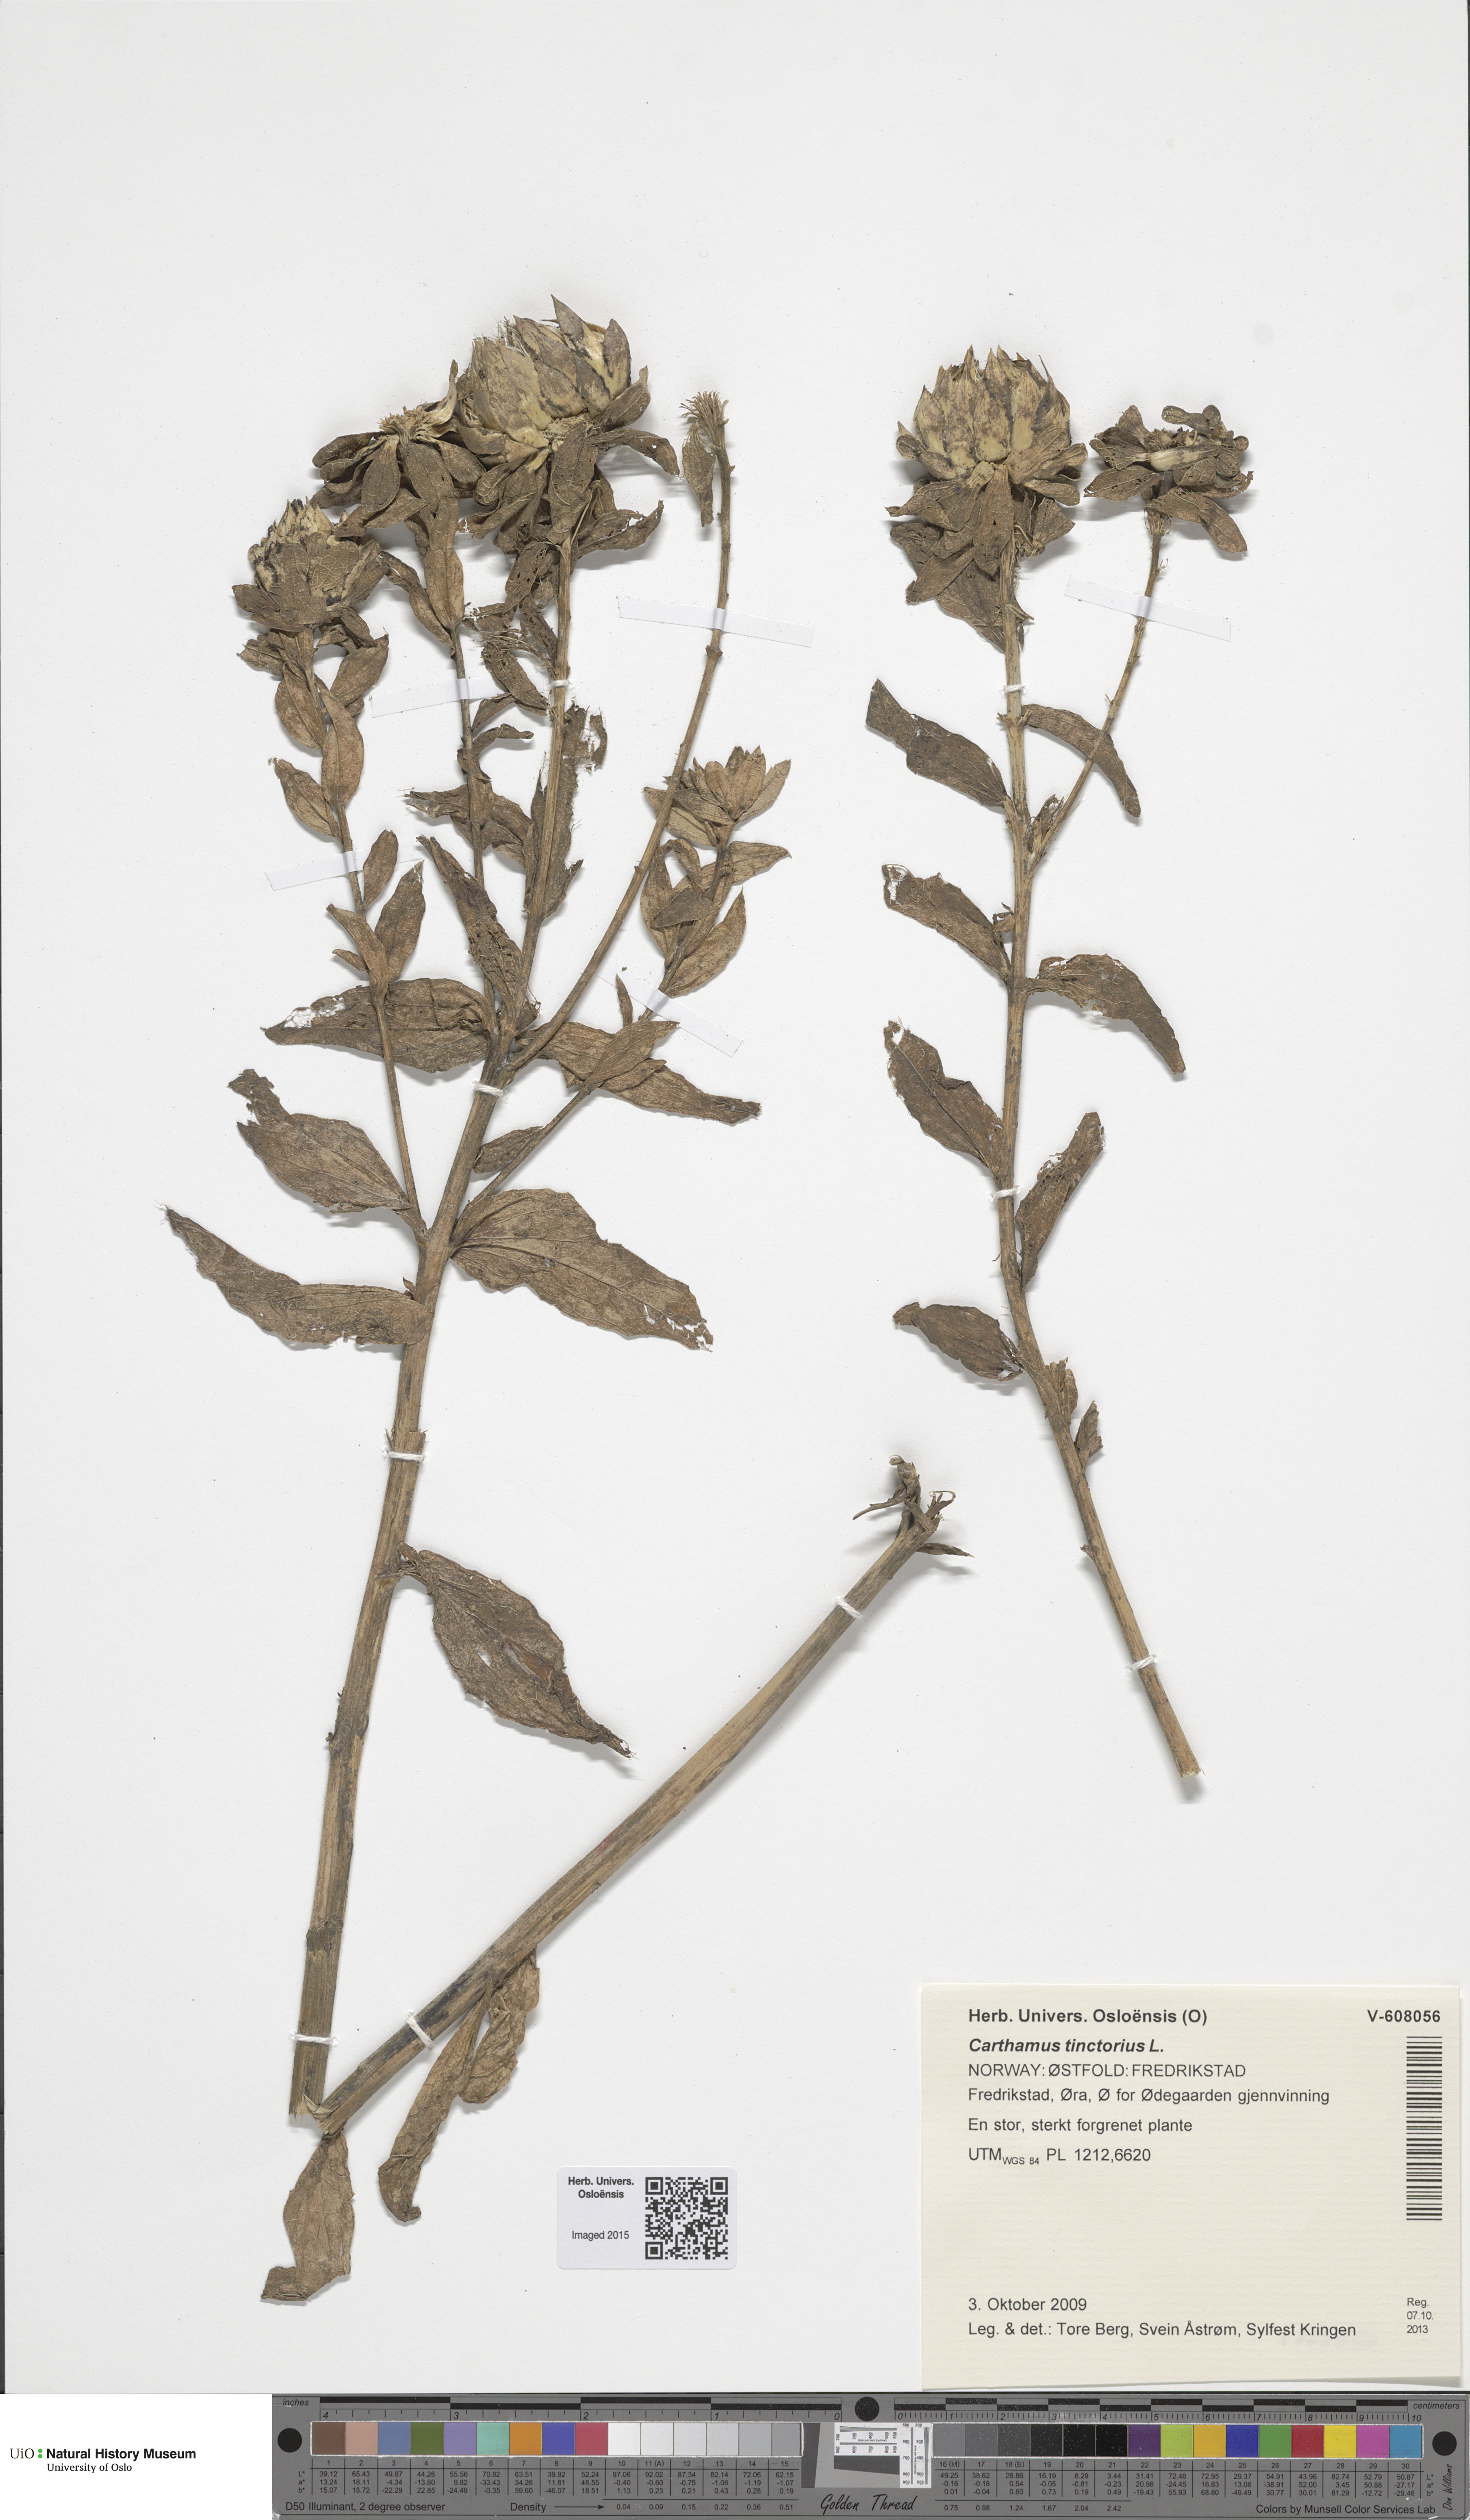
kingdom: Plantae
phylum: Tracheophyta
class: Magnoliopsida
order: Asterales
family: Asteraceae
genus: Carthamus
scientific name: Carthamus tinctorius
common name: Safflower
